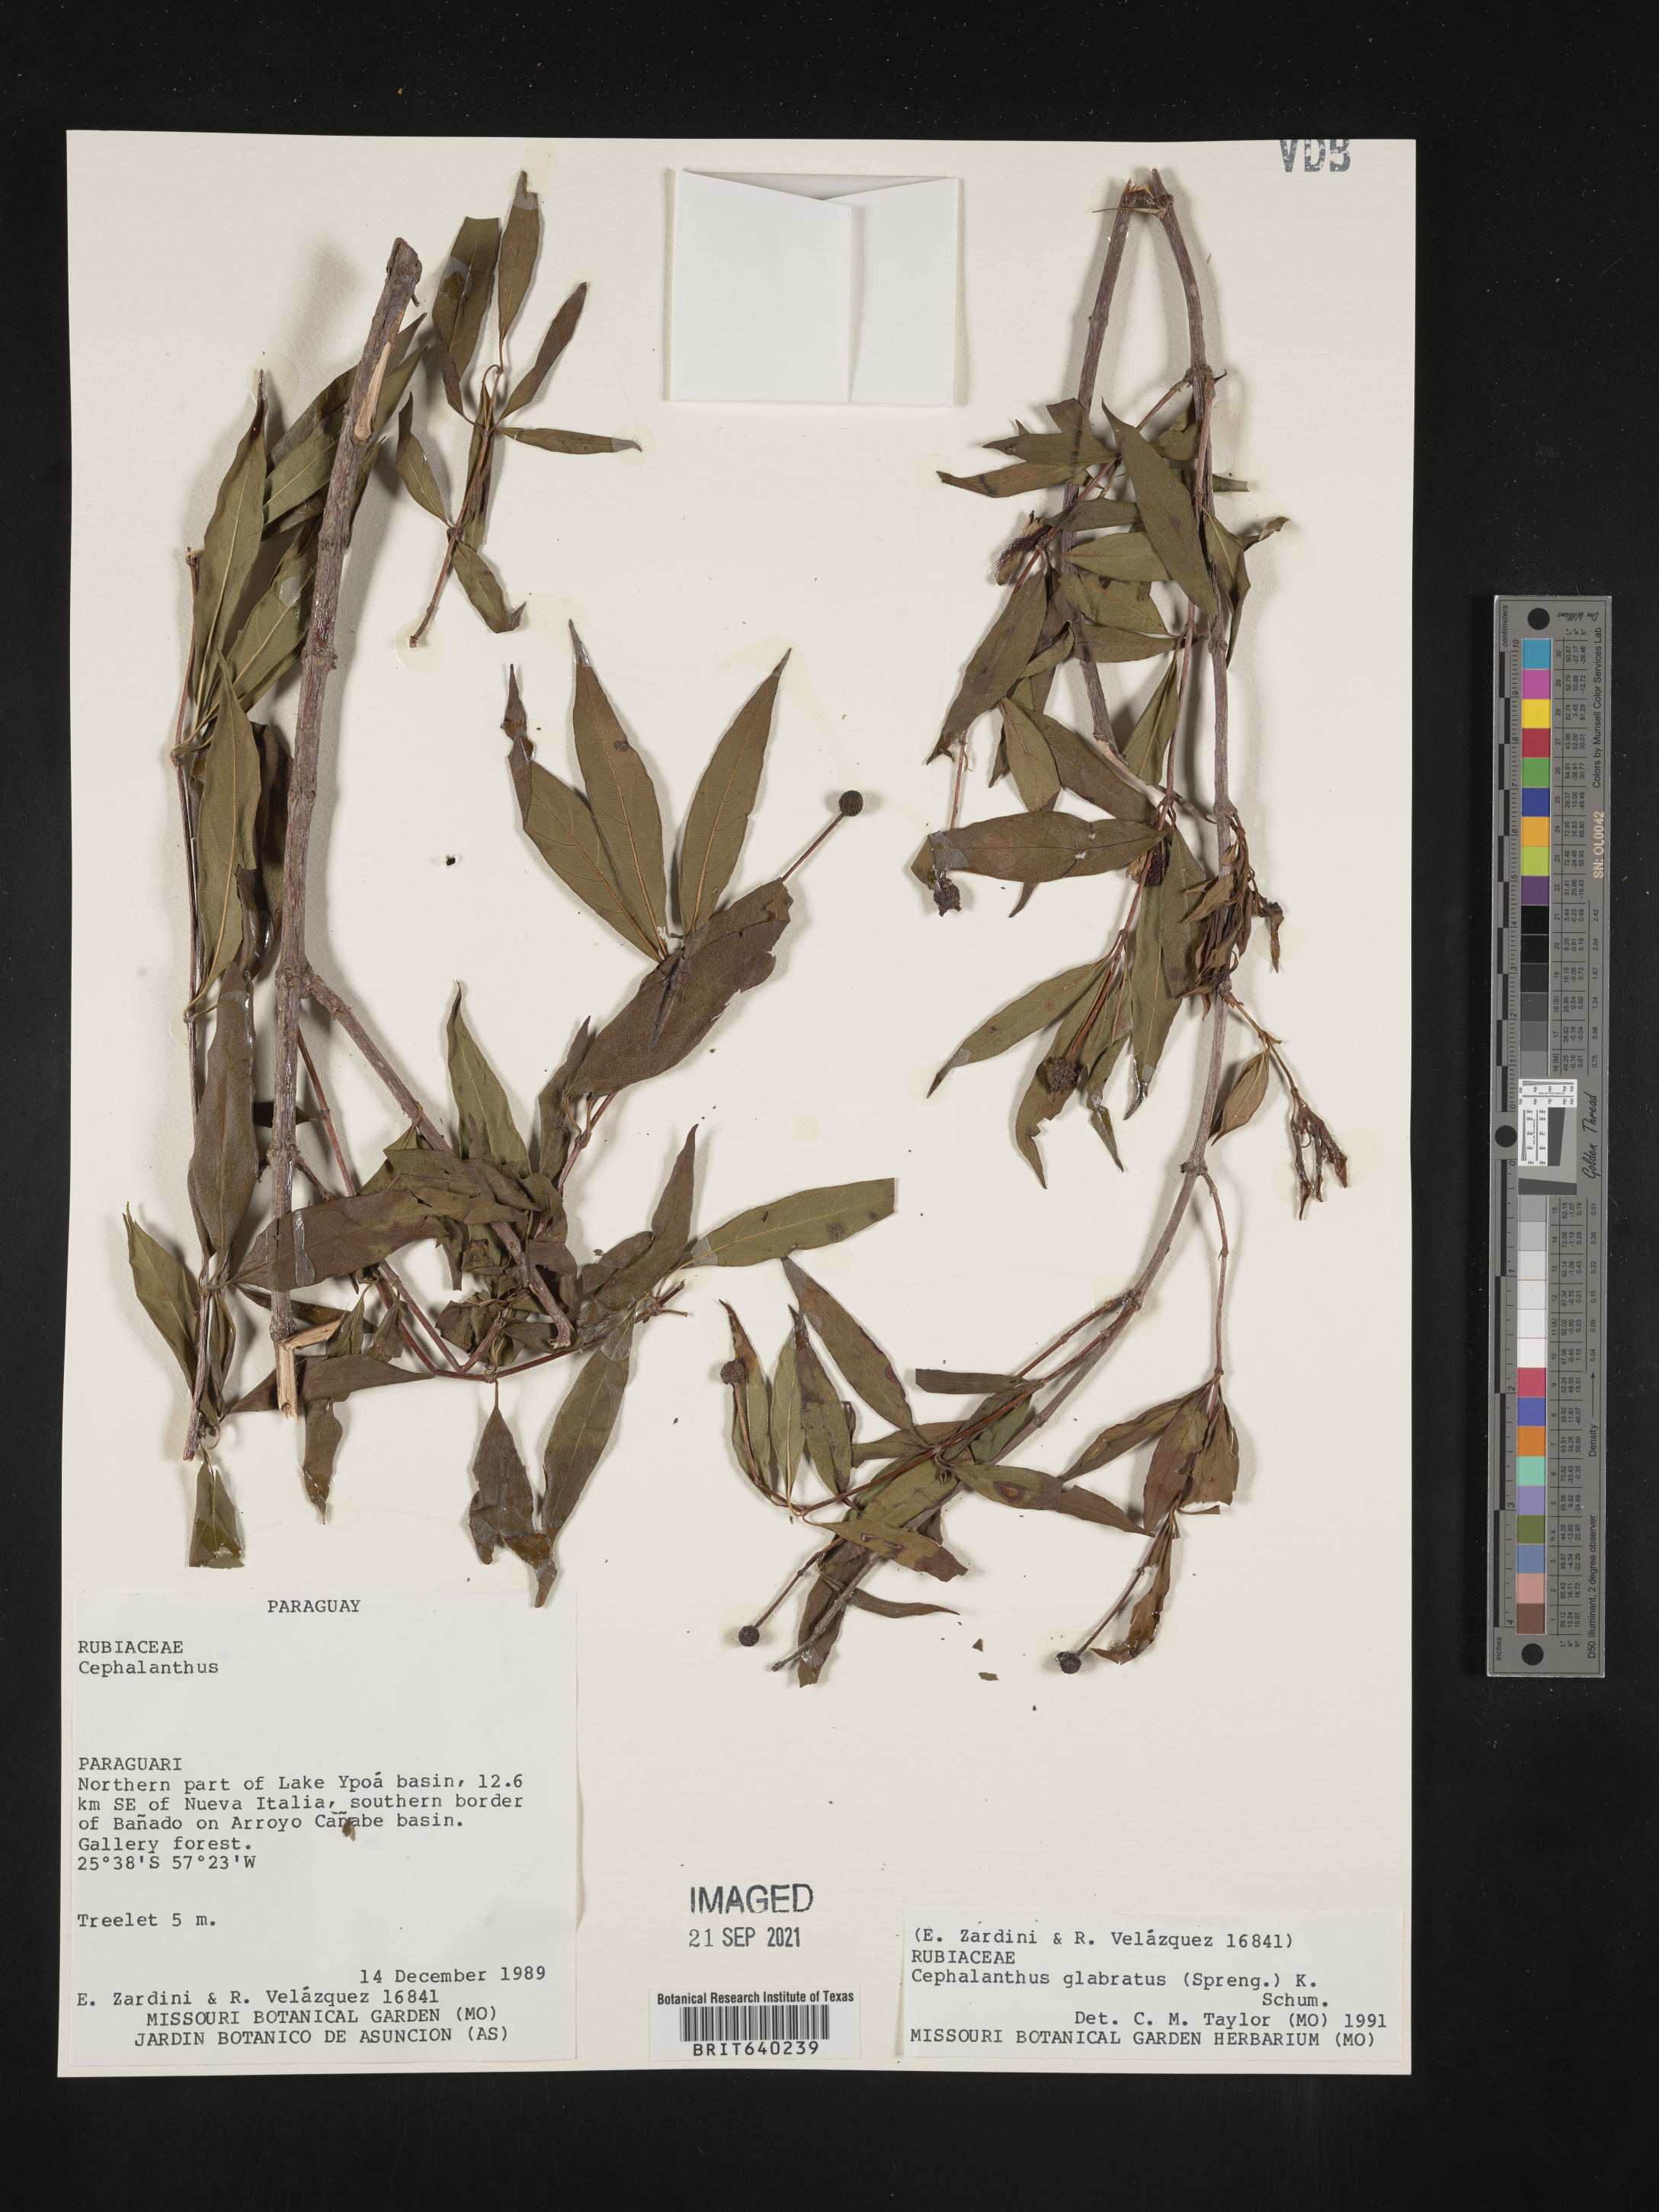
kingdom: Plantae
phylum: Tracheophyta
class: Magnoliopsida
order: Gentianales
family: Rubiaceae
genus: Cephalanthus
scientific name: Cephalanthus
